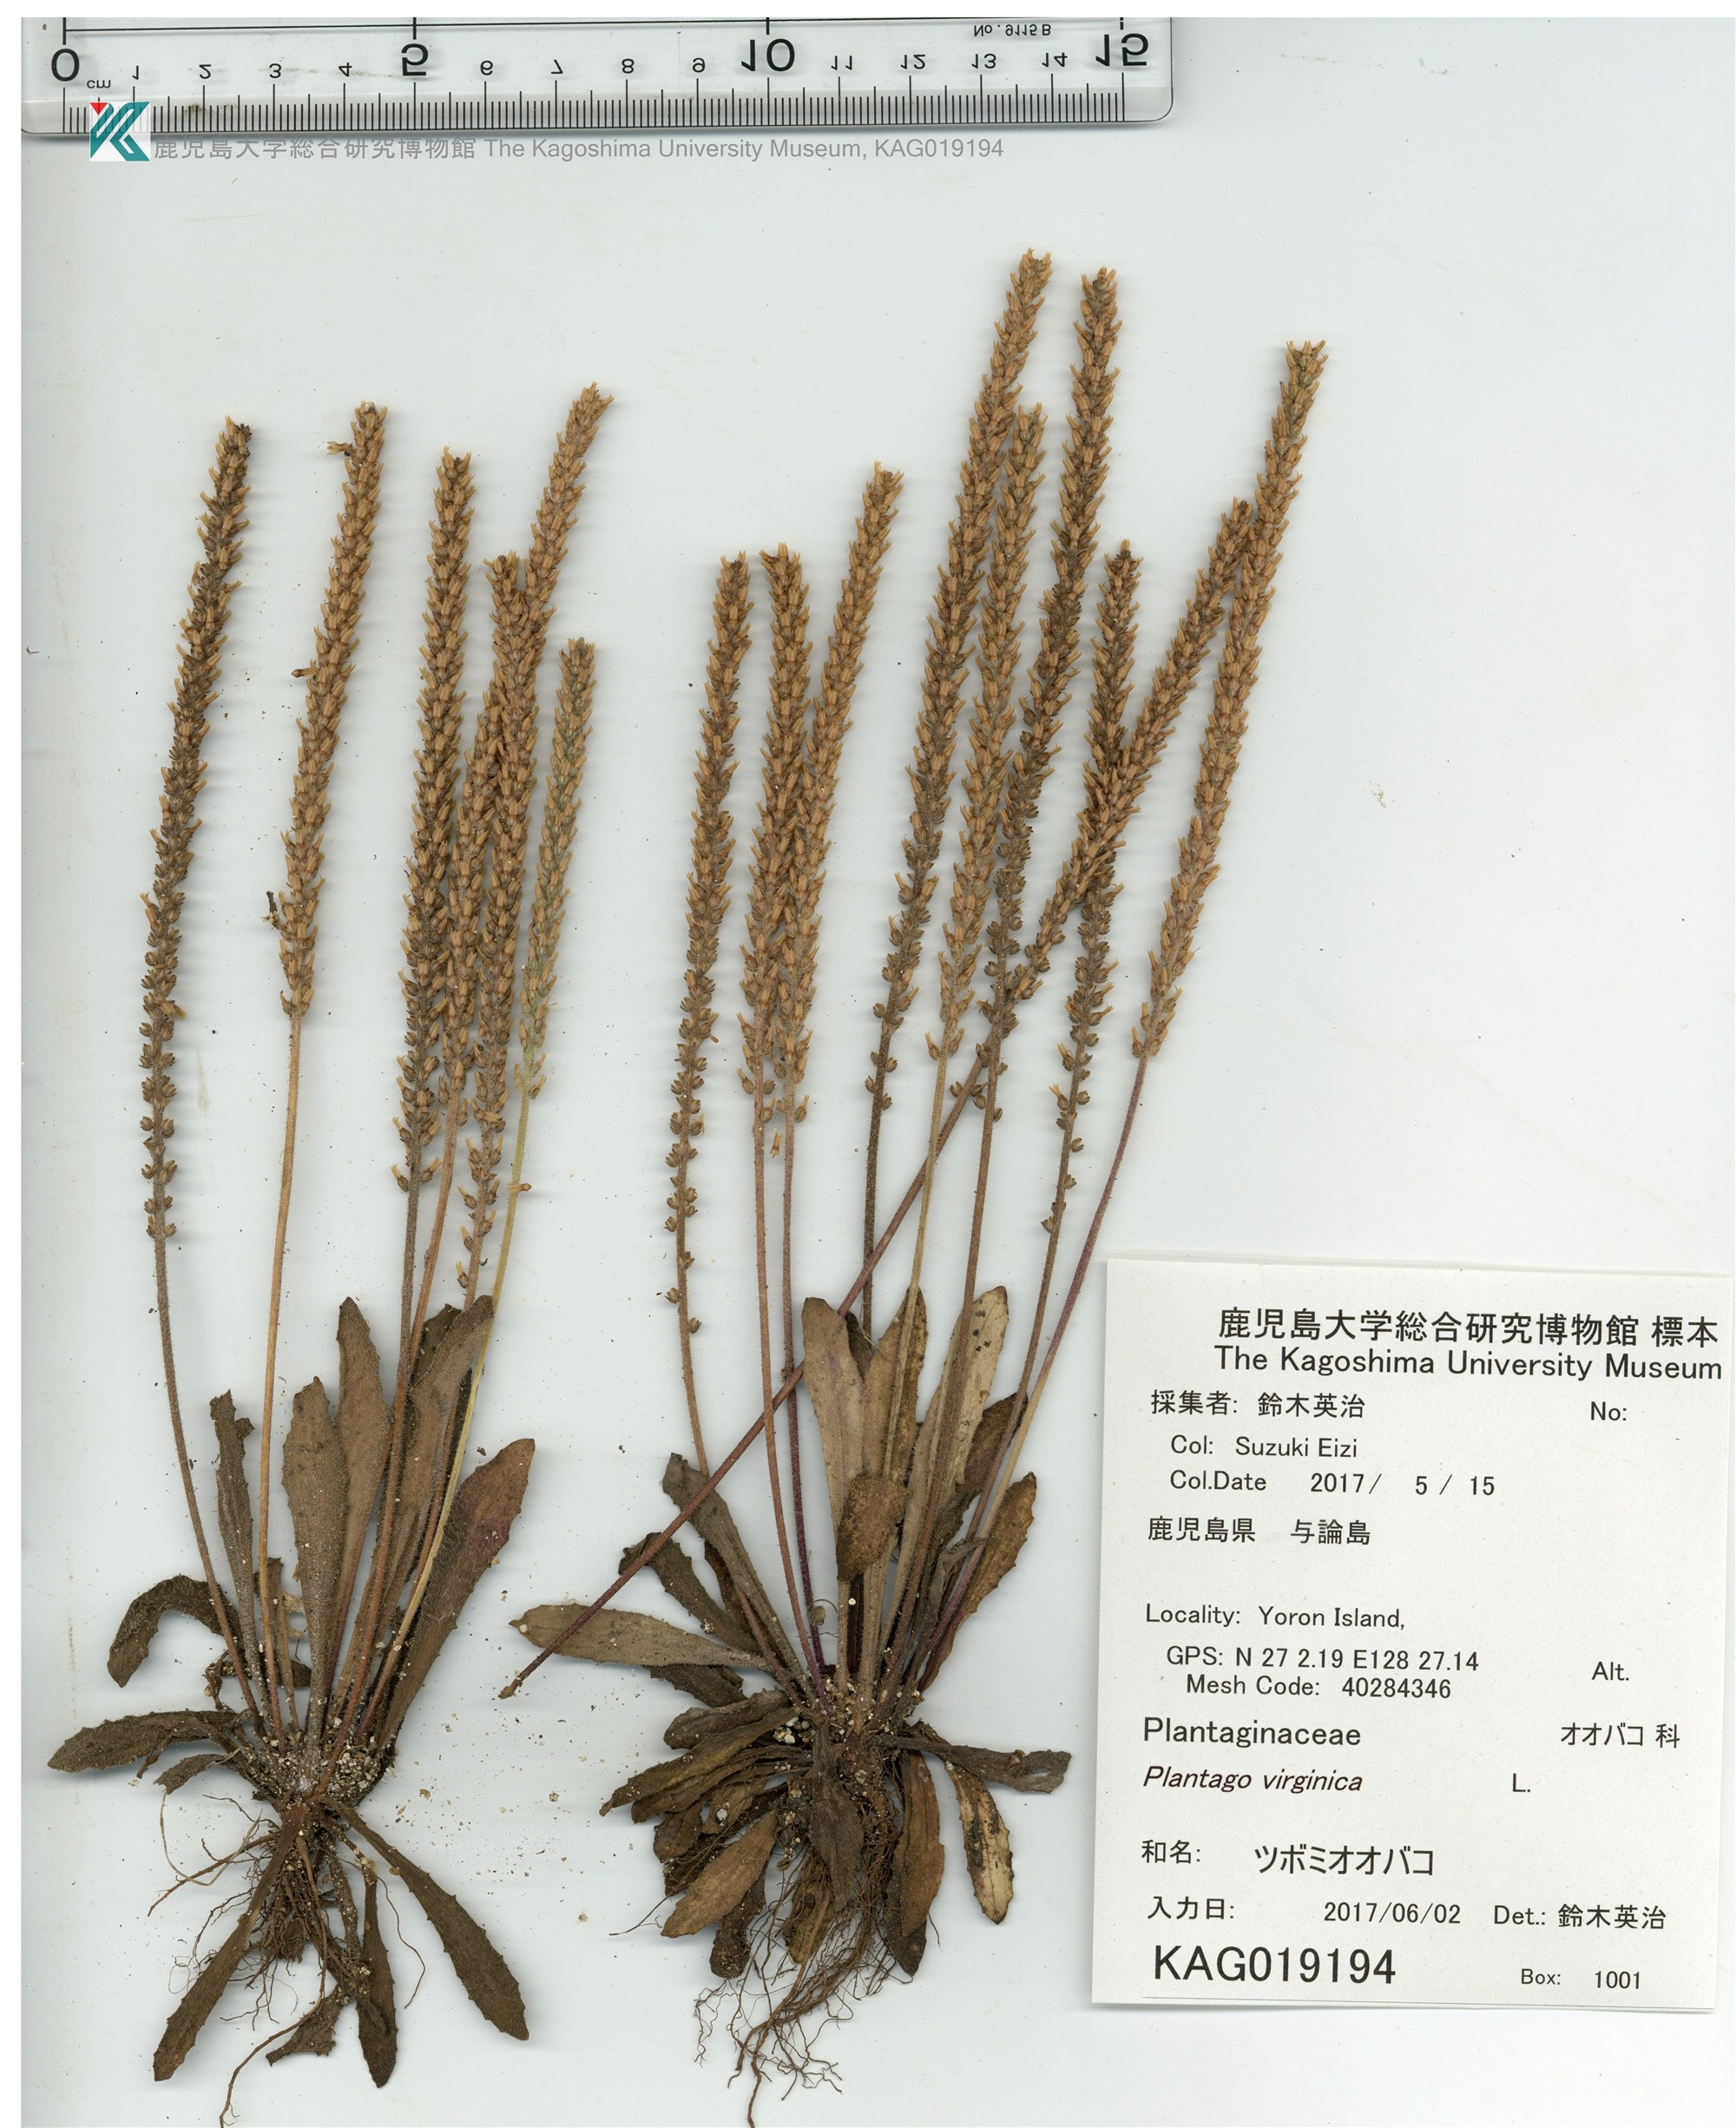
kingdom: Plantae
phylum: Tracheophyta
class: Magnoliopsida
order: Lamiales
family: Plantaginaceae
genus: Plantago
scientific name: Plantago virginica
